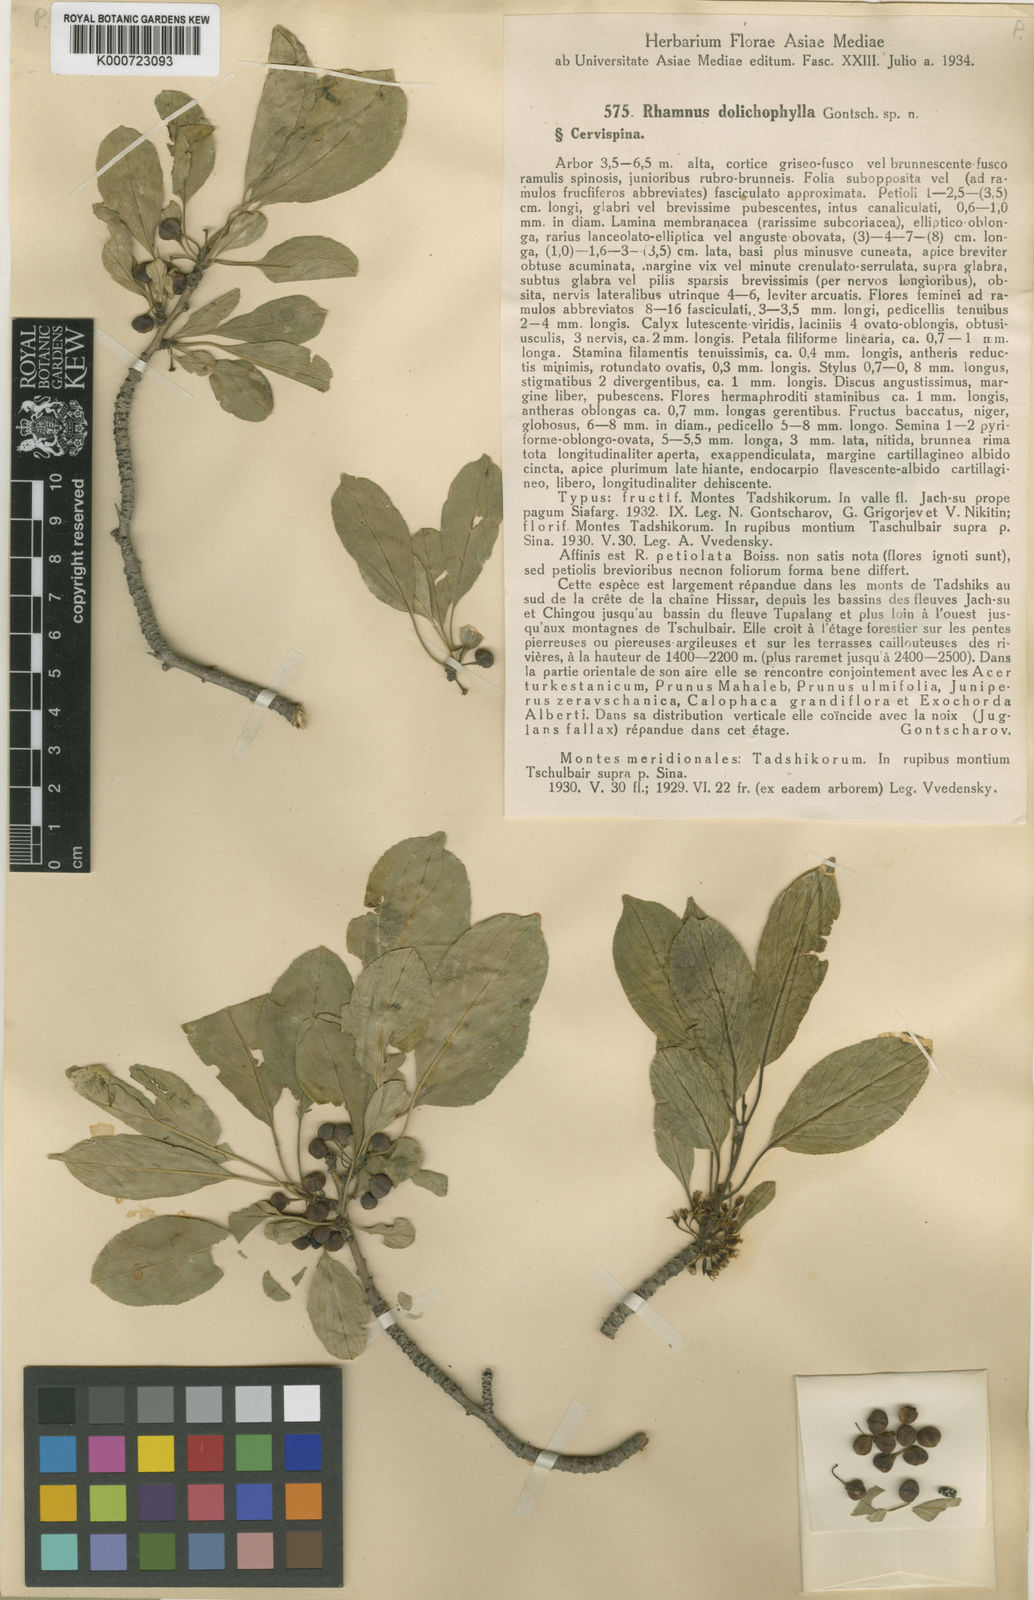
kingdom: Plantae
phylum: Tracheophyta
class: Magnoliopsida
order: Rosales
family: Rhamnaceae
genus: Rhamnus
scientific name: Rhamnus dolichophylla
